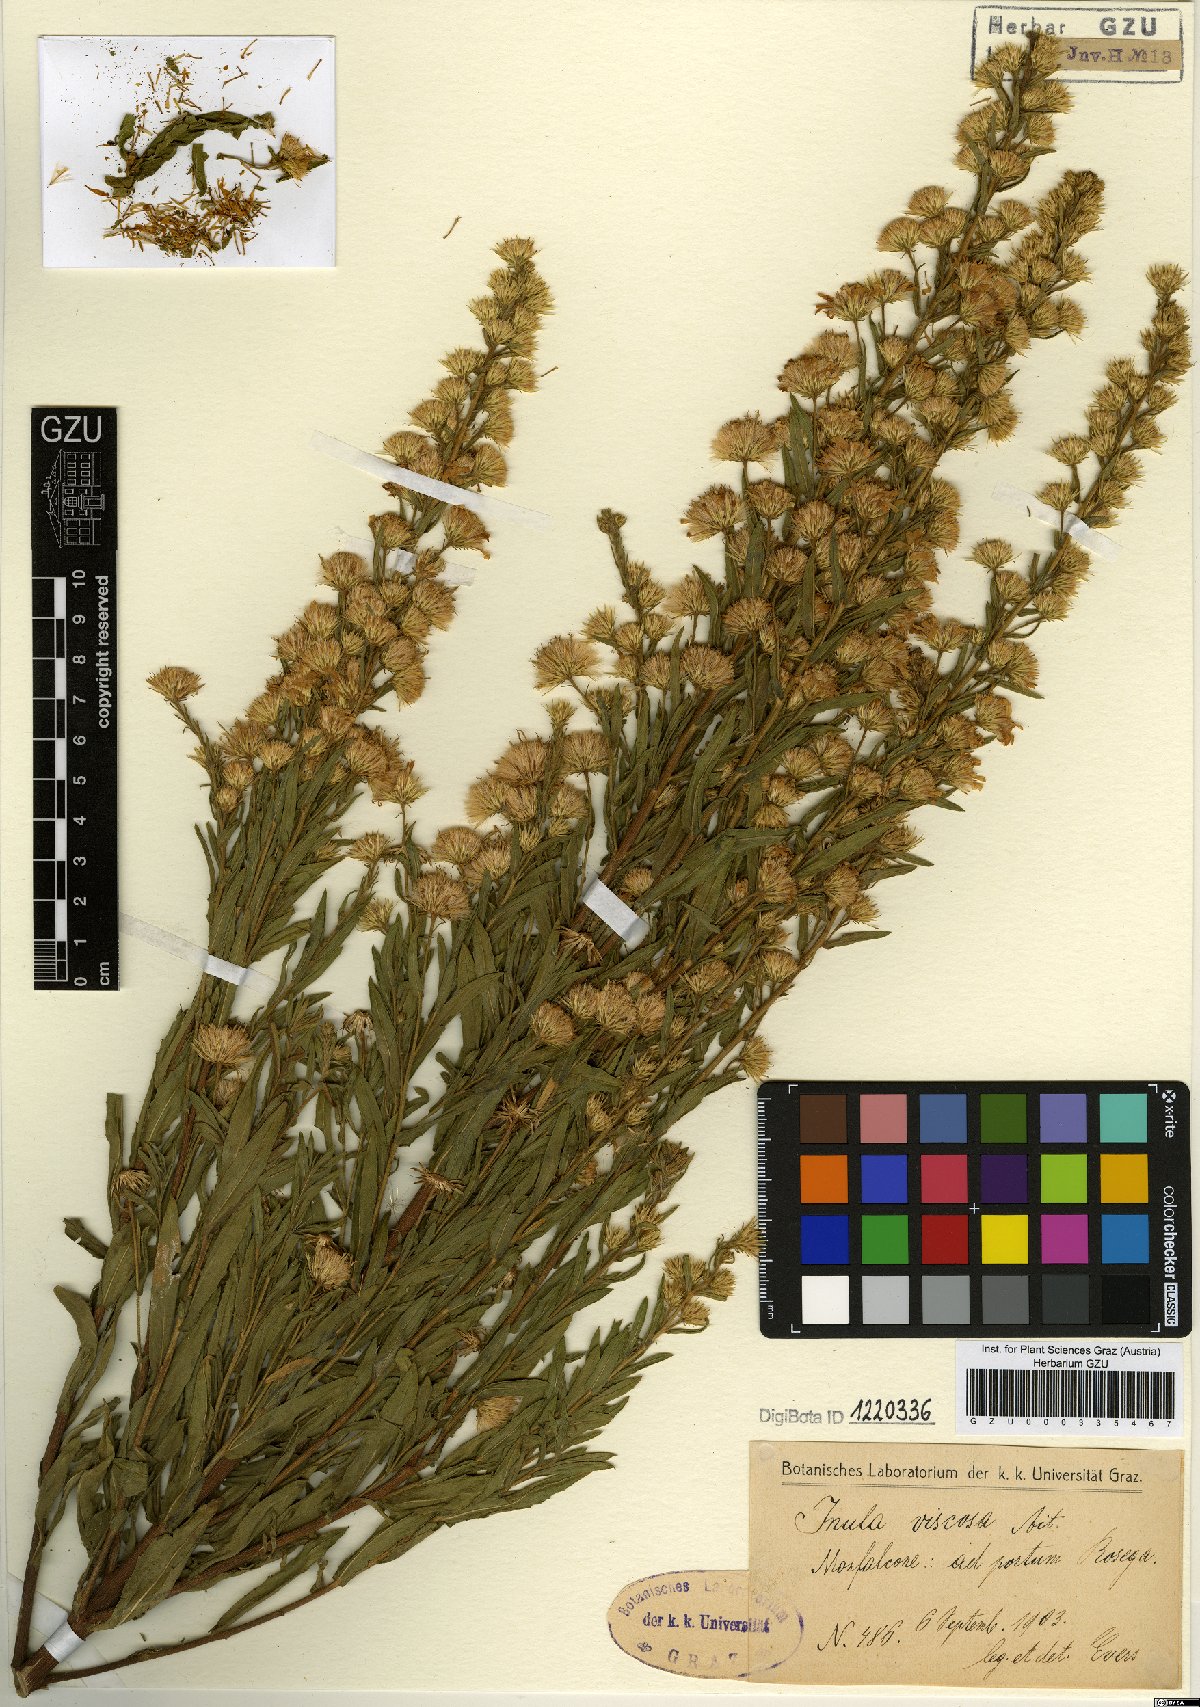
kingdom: Plantae
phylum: Tracheophyta
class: Magnoliopsida
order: Asterales
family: Asteraceae
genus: Dittrichia
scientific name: Dittrichia viscosa
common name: Woody fleabane
